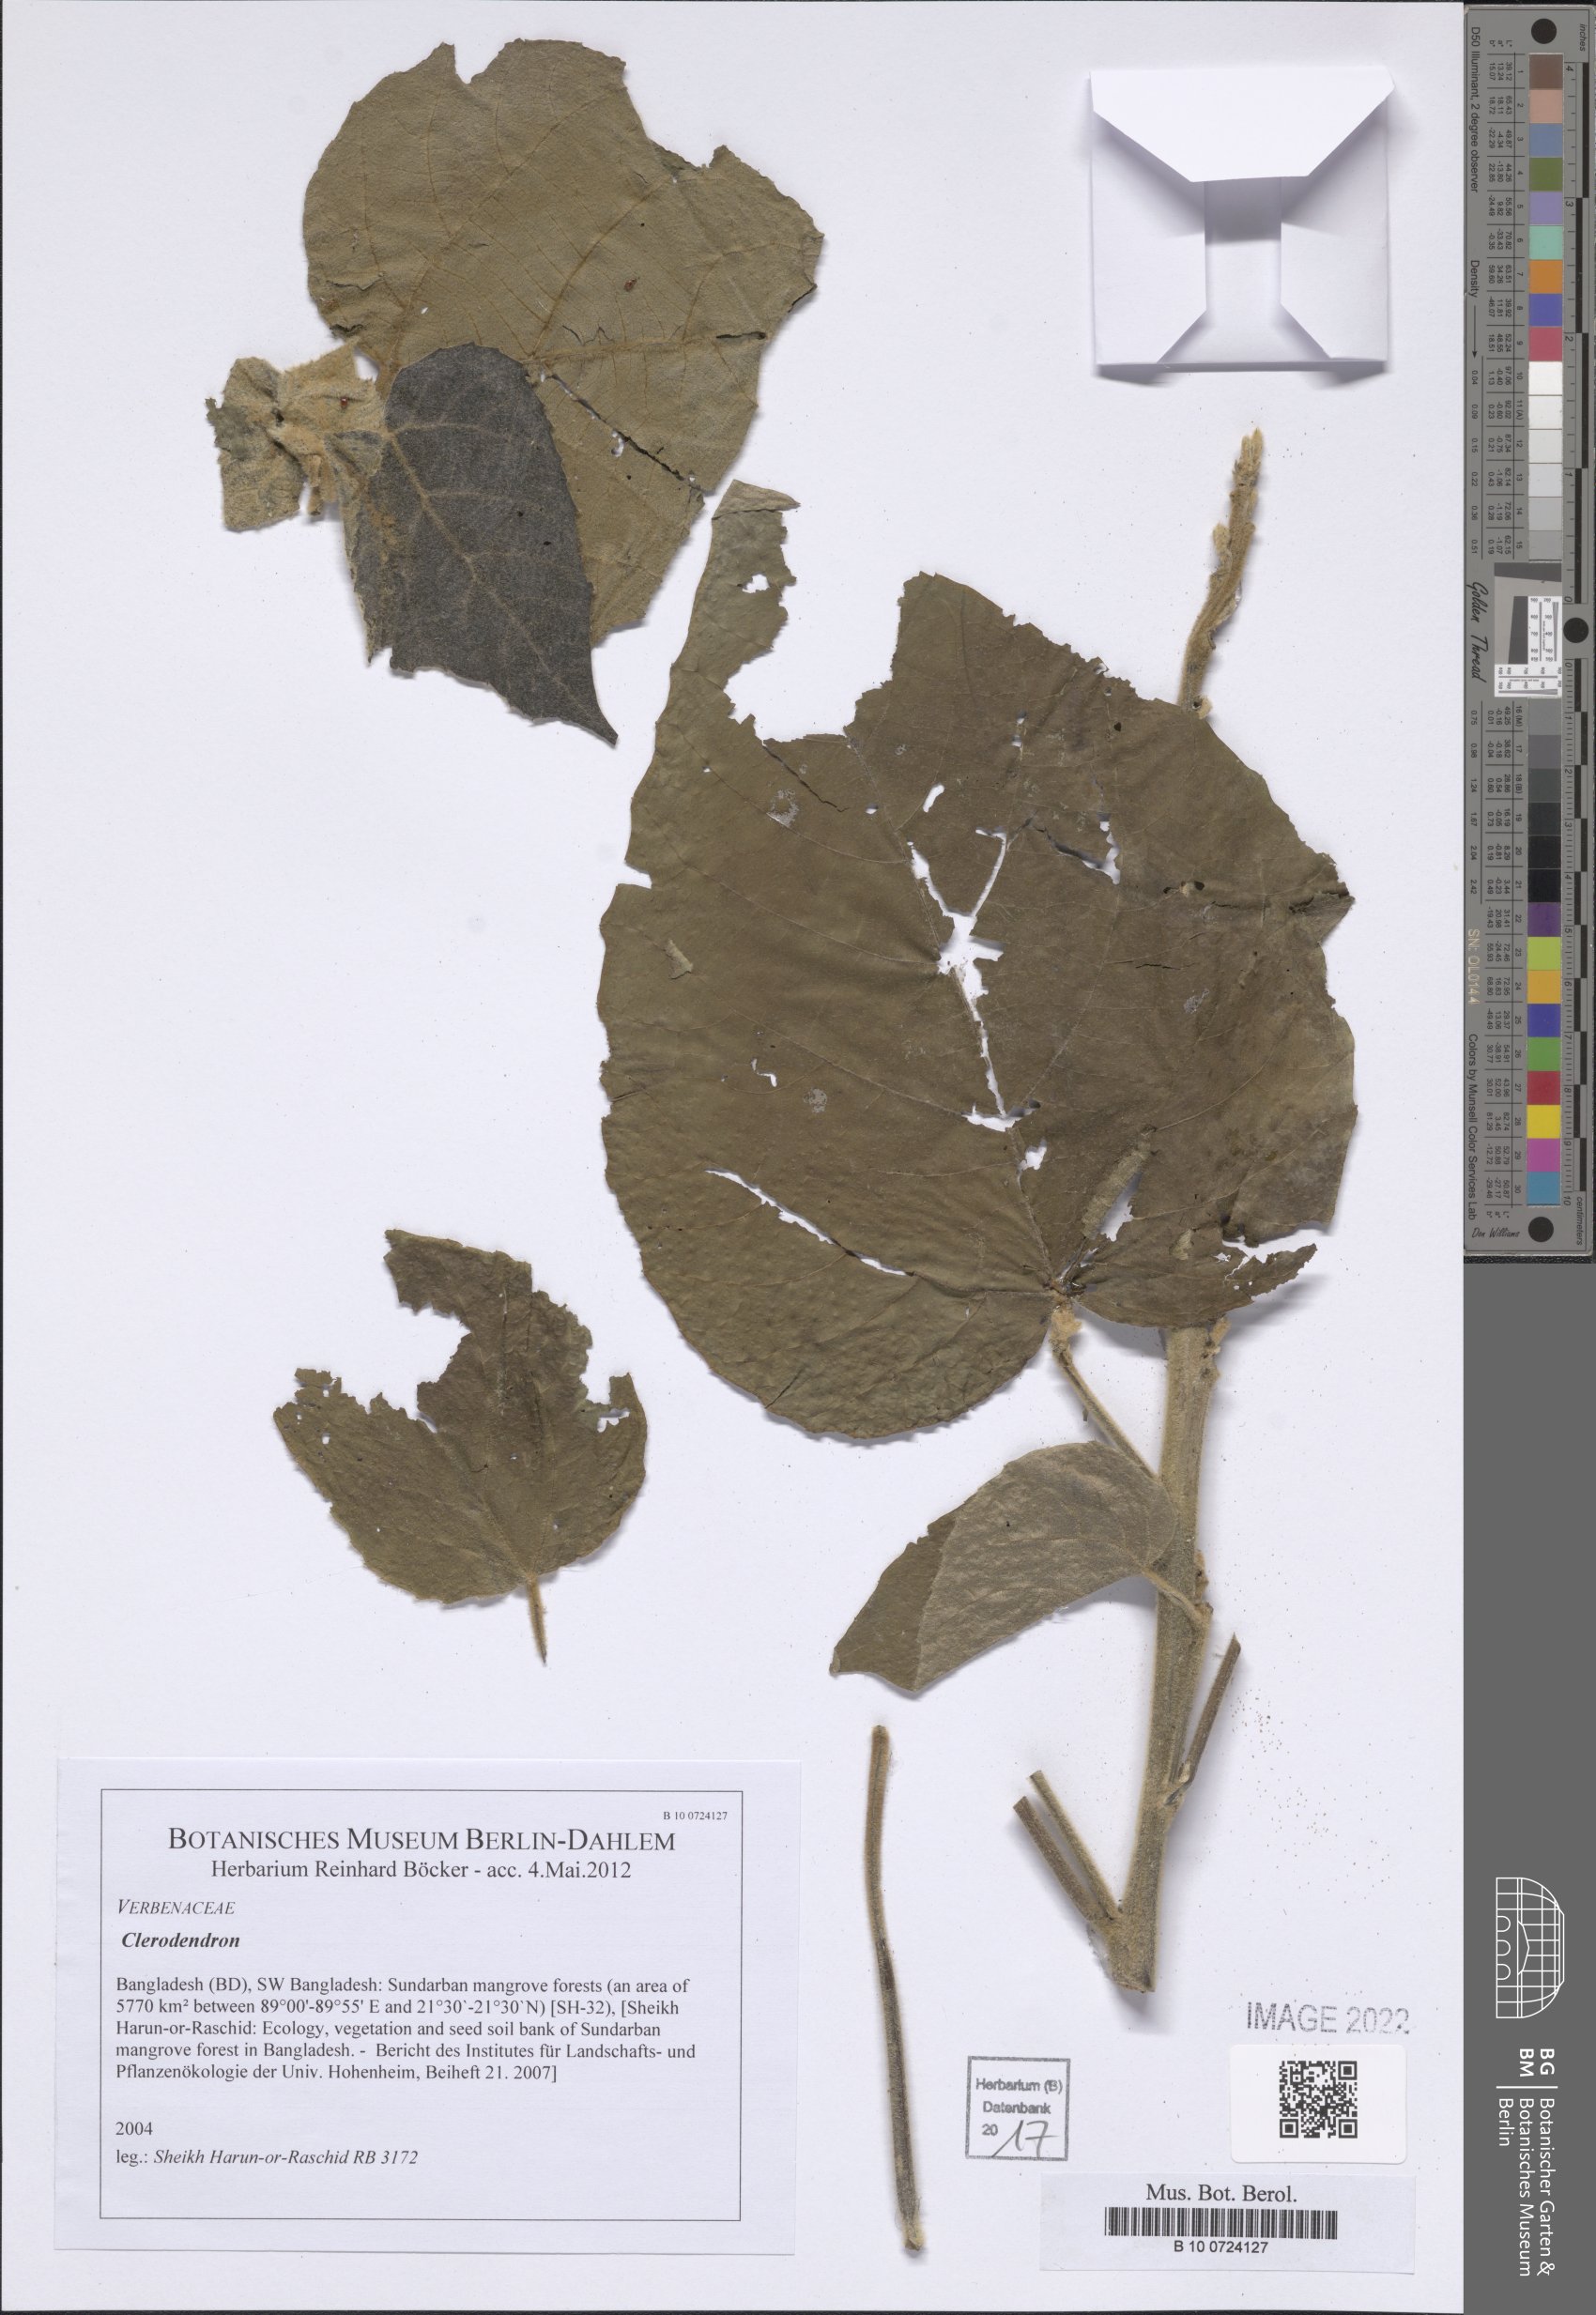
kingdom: Plantae
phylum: Tracheophyta
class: Magnoliopsida
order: Lamiales
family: Lamiaceae
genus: Clerodendrum
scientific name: Clerodendrum
